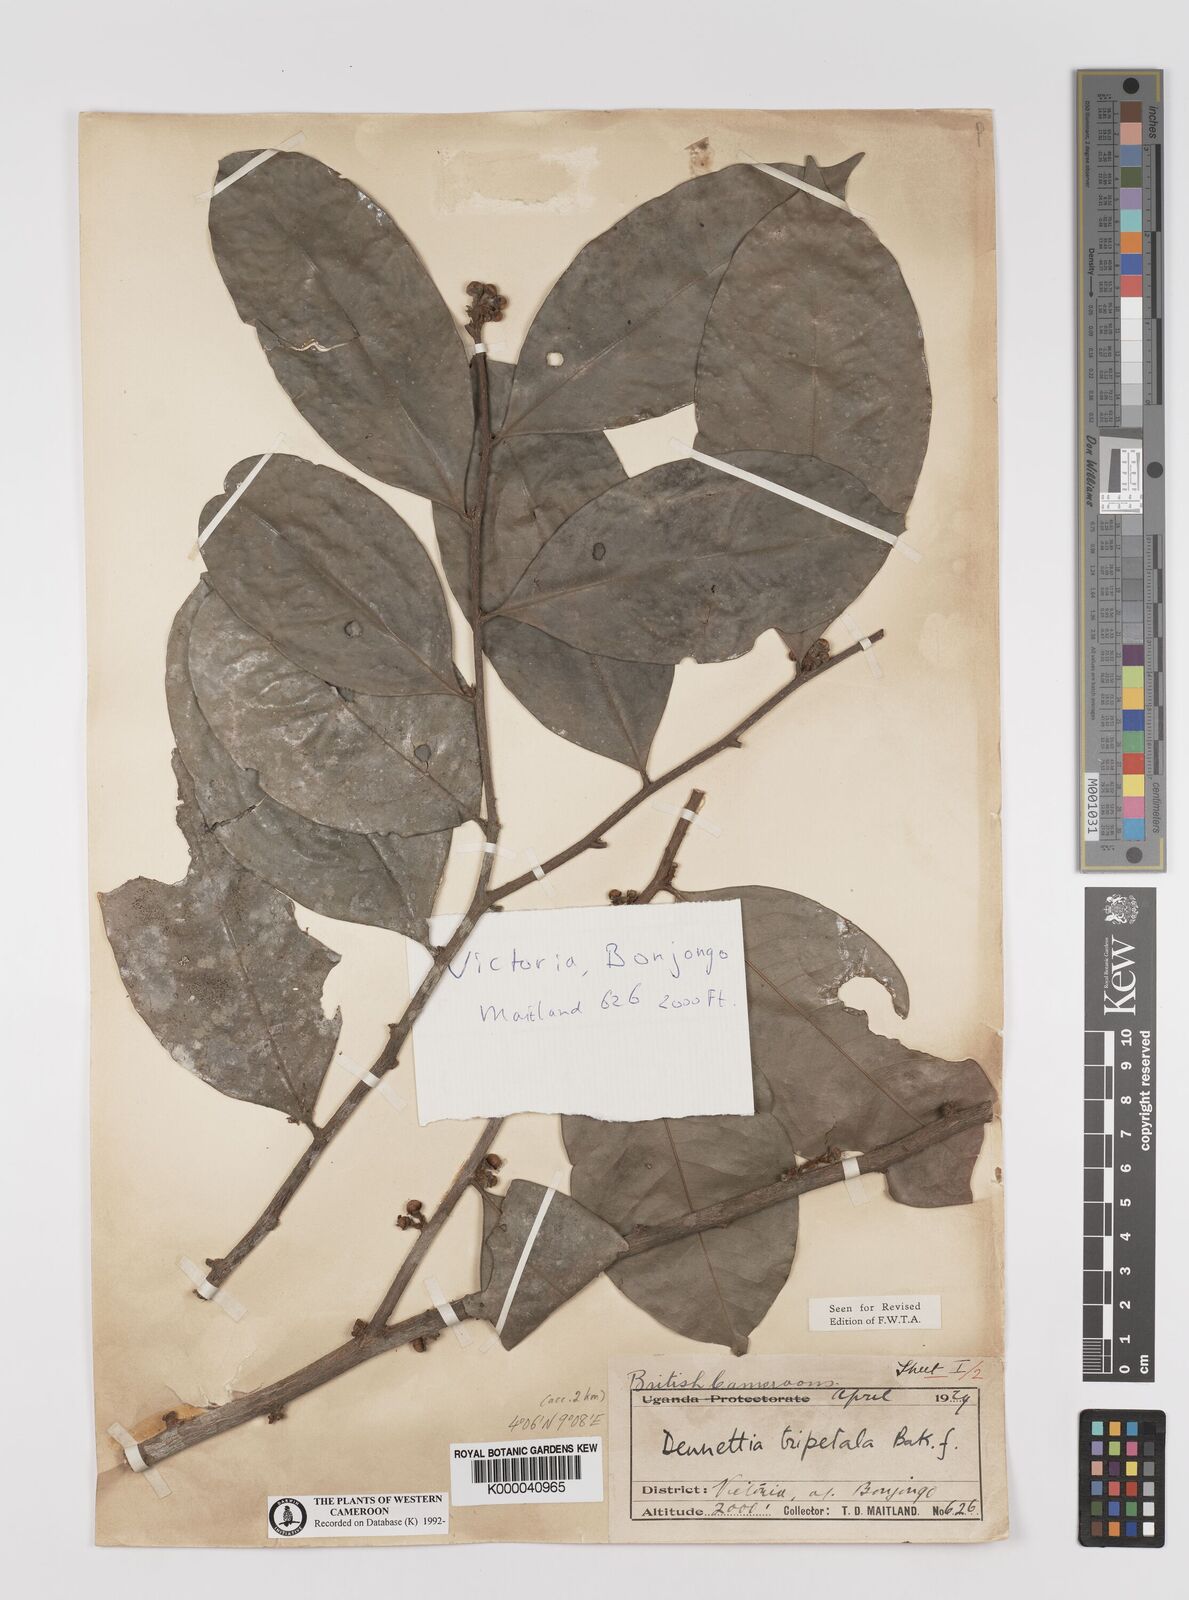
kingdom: Plantae
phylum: Tracheophyta
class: Magnoliopsida
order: Magnoliales
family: Annonaceae
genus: Uvariopsis
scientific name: Uvariopsis tripetala
